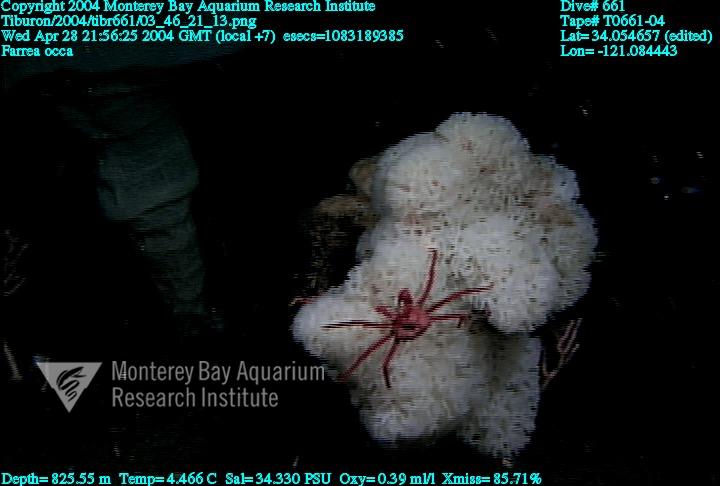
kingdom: Animalia
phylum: Porifera
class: Hexactinellida
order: Sceptrulophora
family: Farreidae
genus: Farrea
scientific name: Farrea occa
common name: Reversed glass sponge
